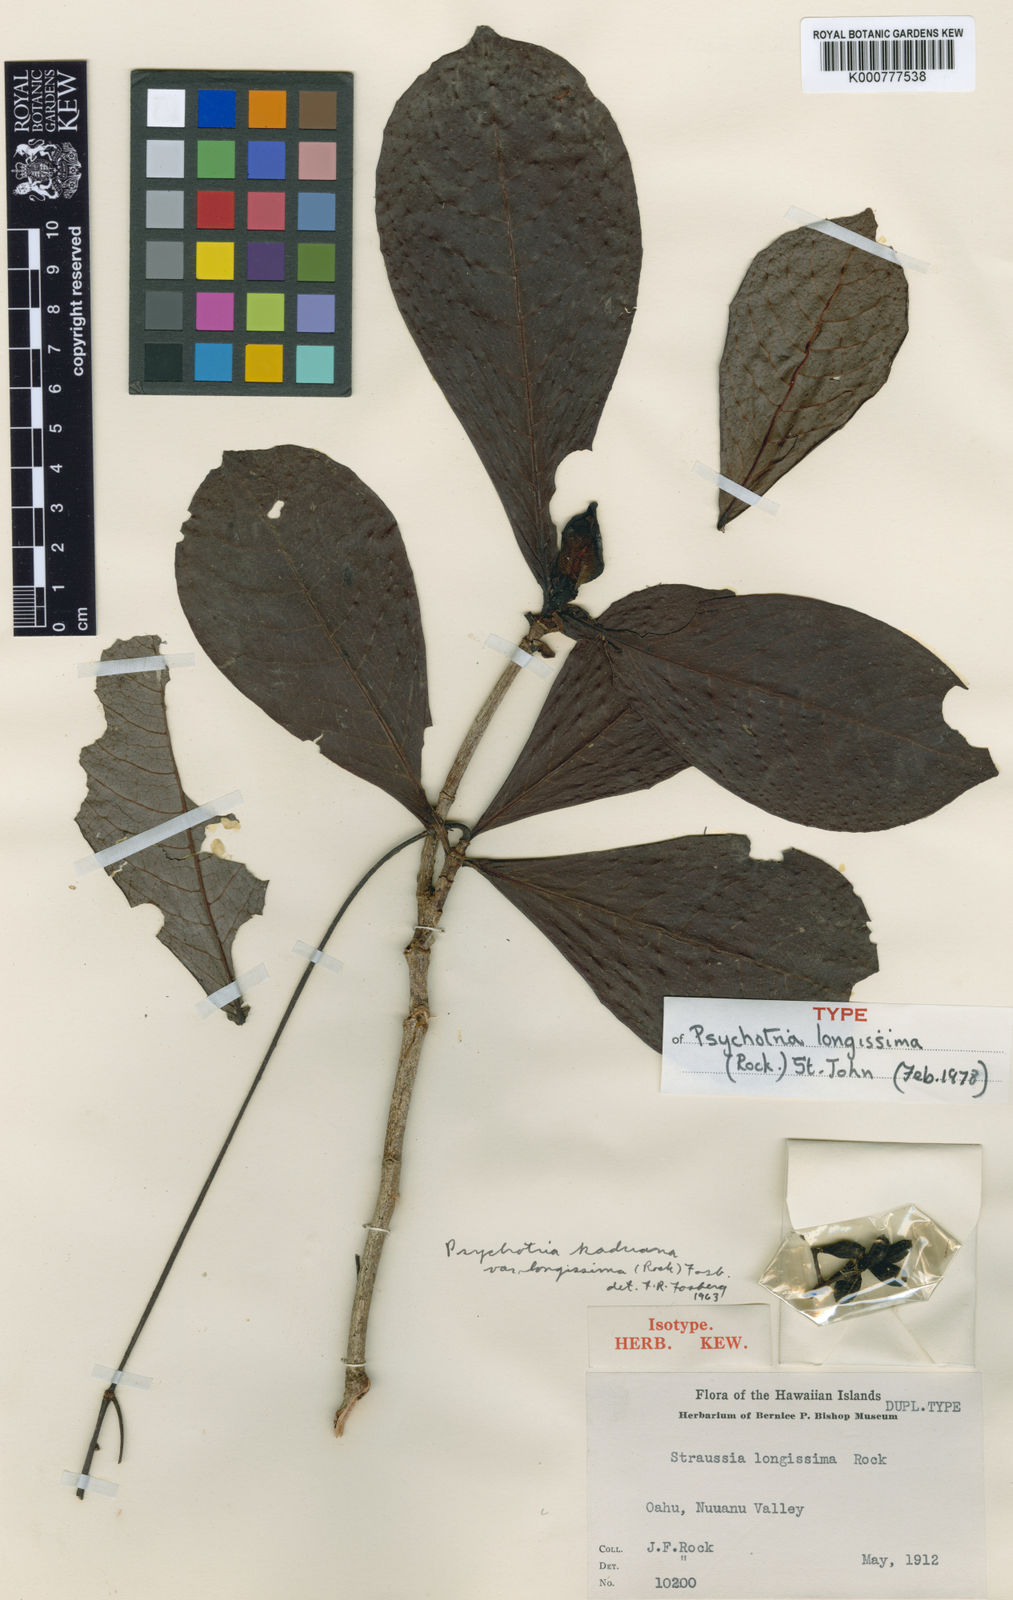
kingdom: Plantae
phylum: Tracheophyta
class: Magnoliopsida
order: Gentianales
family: Rubiaceae
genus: Psychotria
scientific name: Psychotria kaduana
